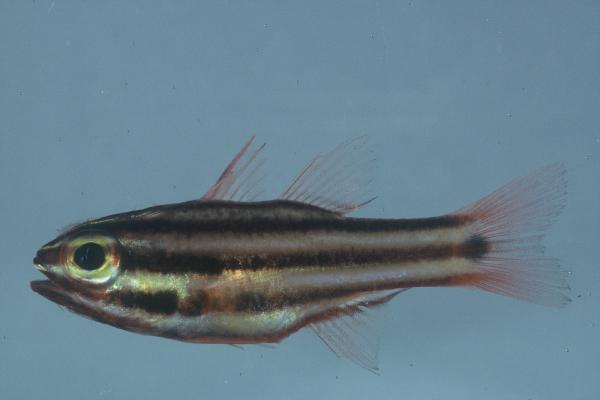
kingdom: Animalia
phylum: Chordata
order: Perciformes
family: Apogonidae
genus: Ostorhinchus
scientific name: Ostorhinchus angustatus
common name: Narrow-striped cardinalfish
